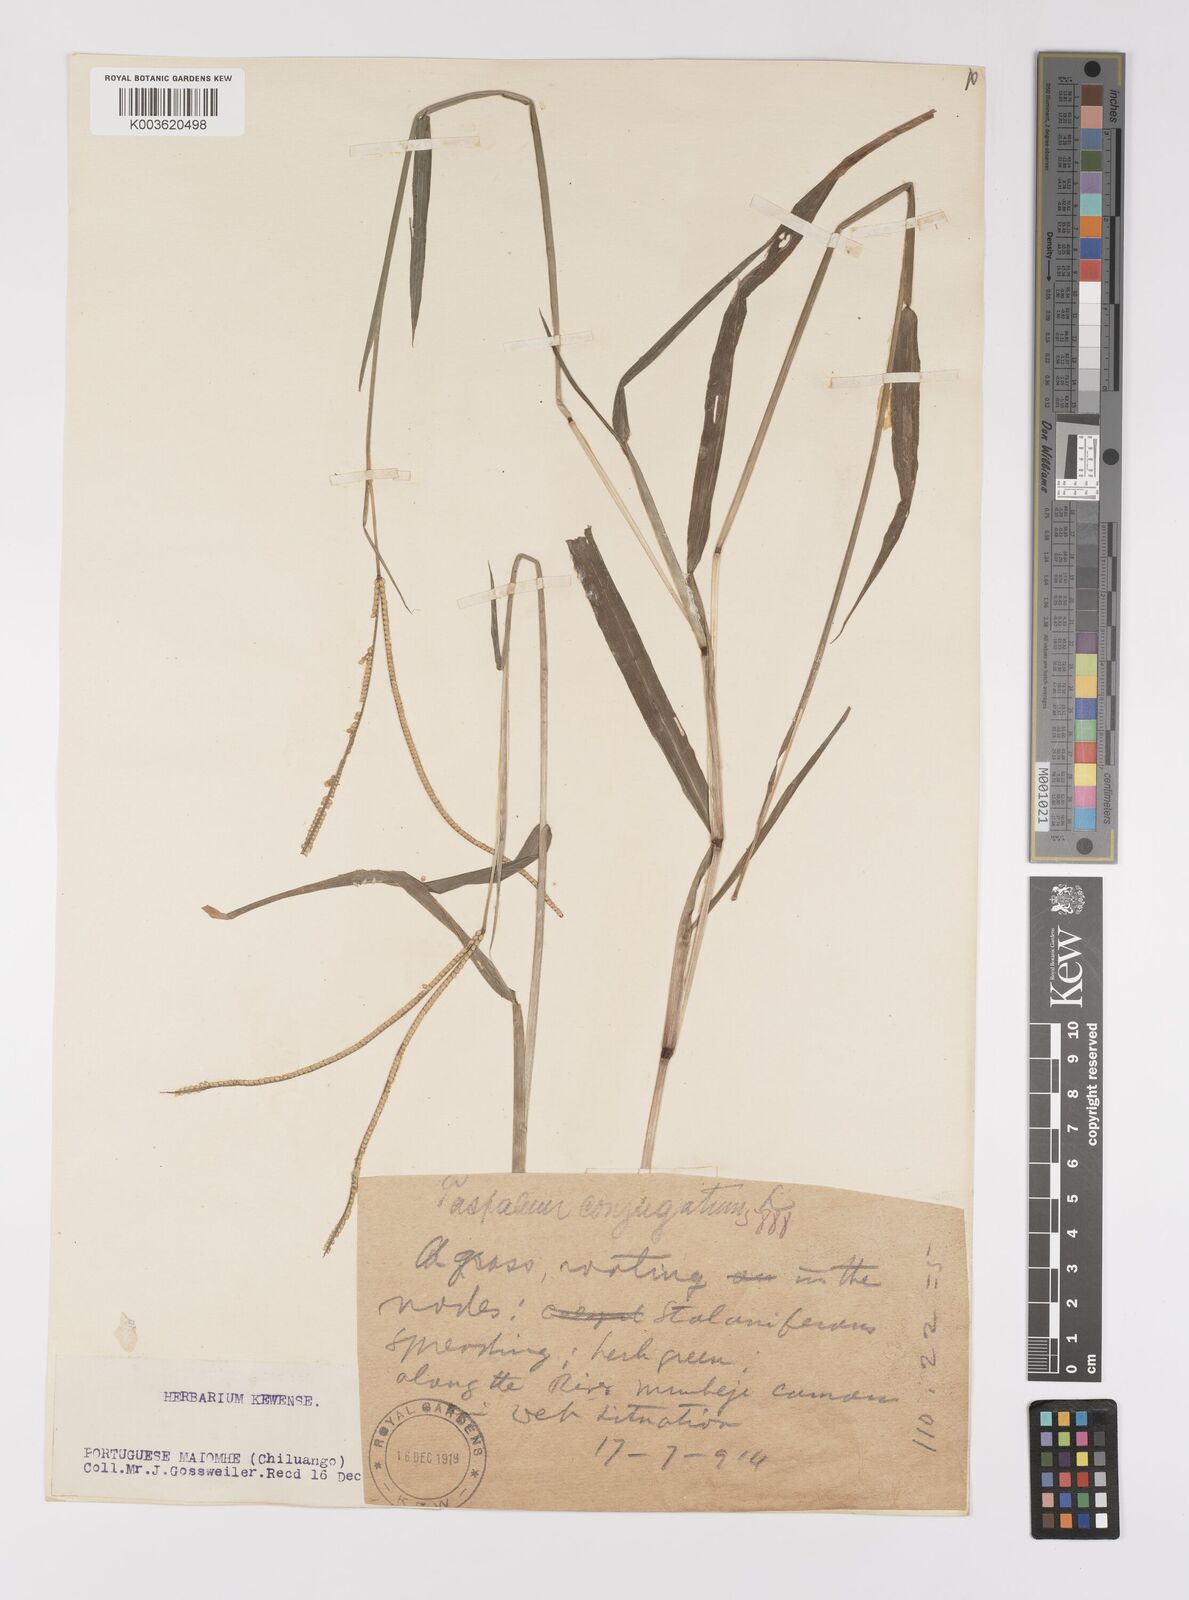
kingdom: Plantae
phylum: Tracheophyta
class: Liliopsida
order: Poales
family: Poaceae
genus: Paspalum
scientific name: Paspalum conjugatum
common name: Hilograss
